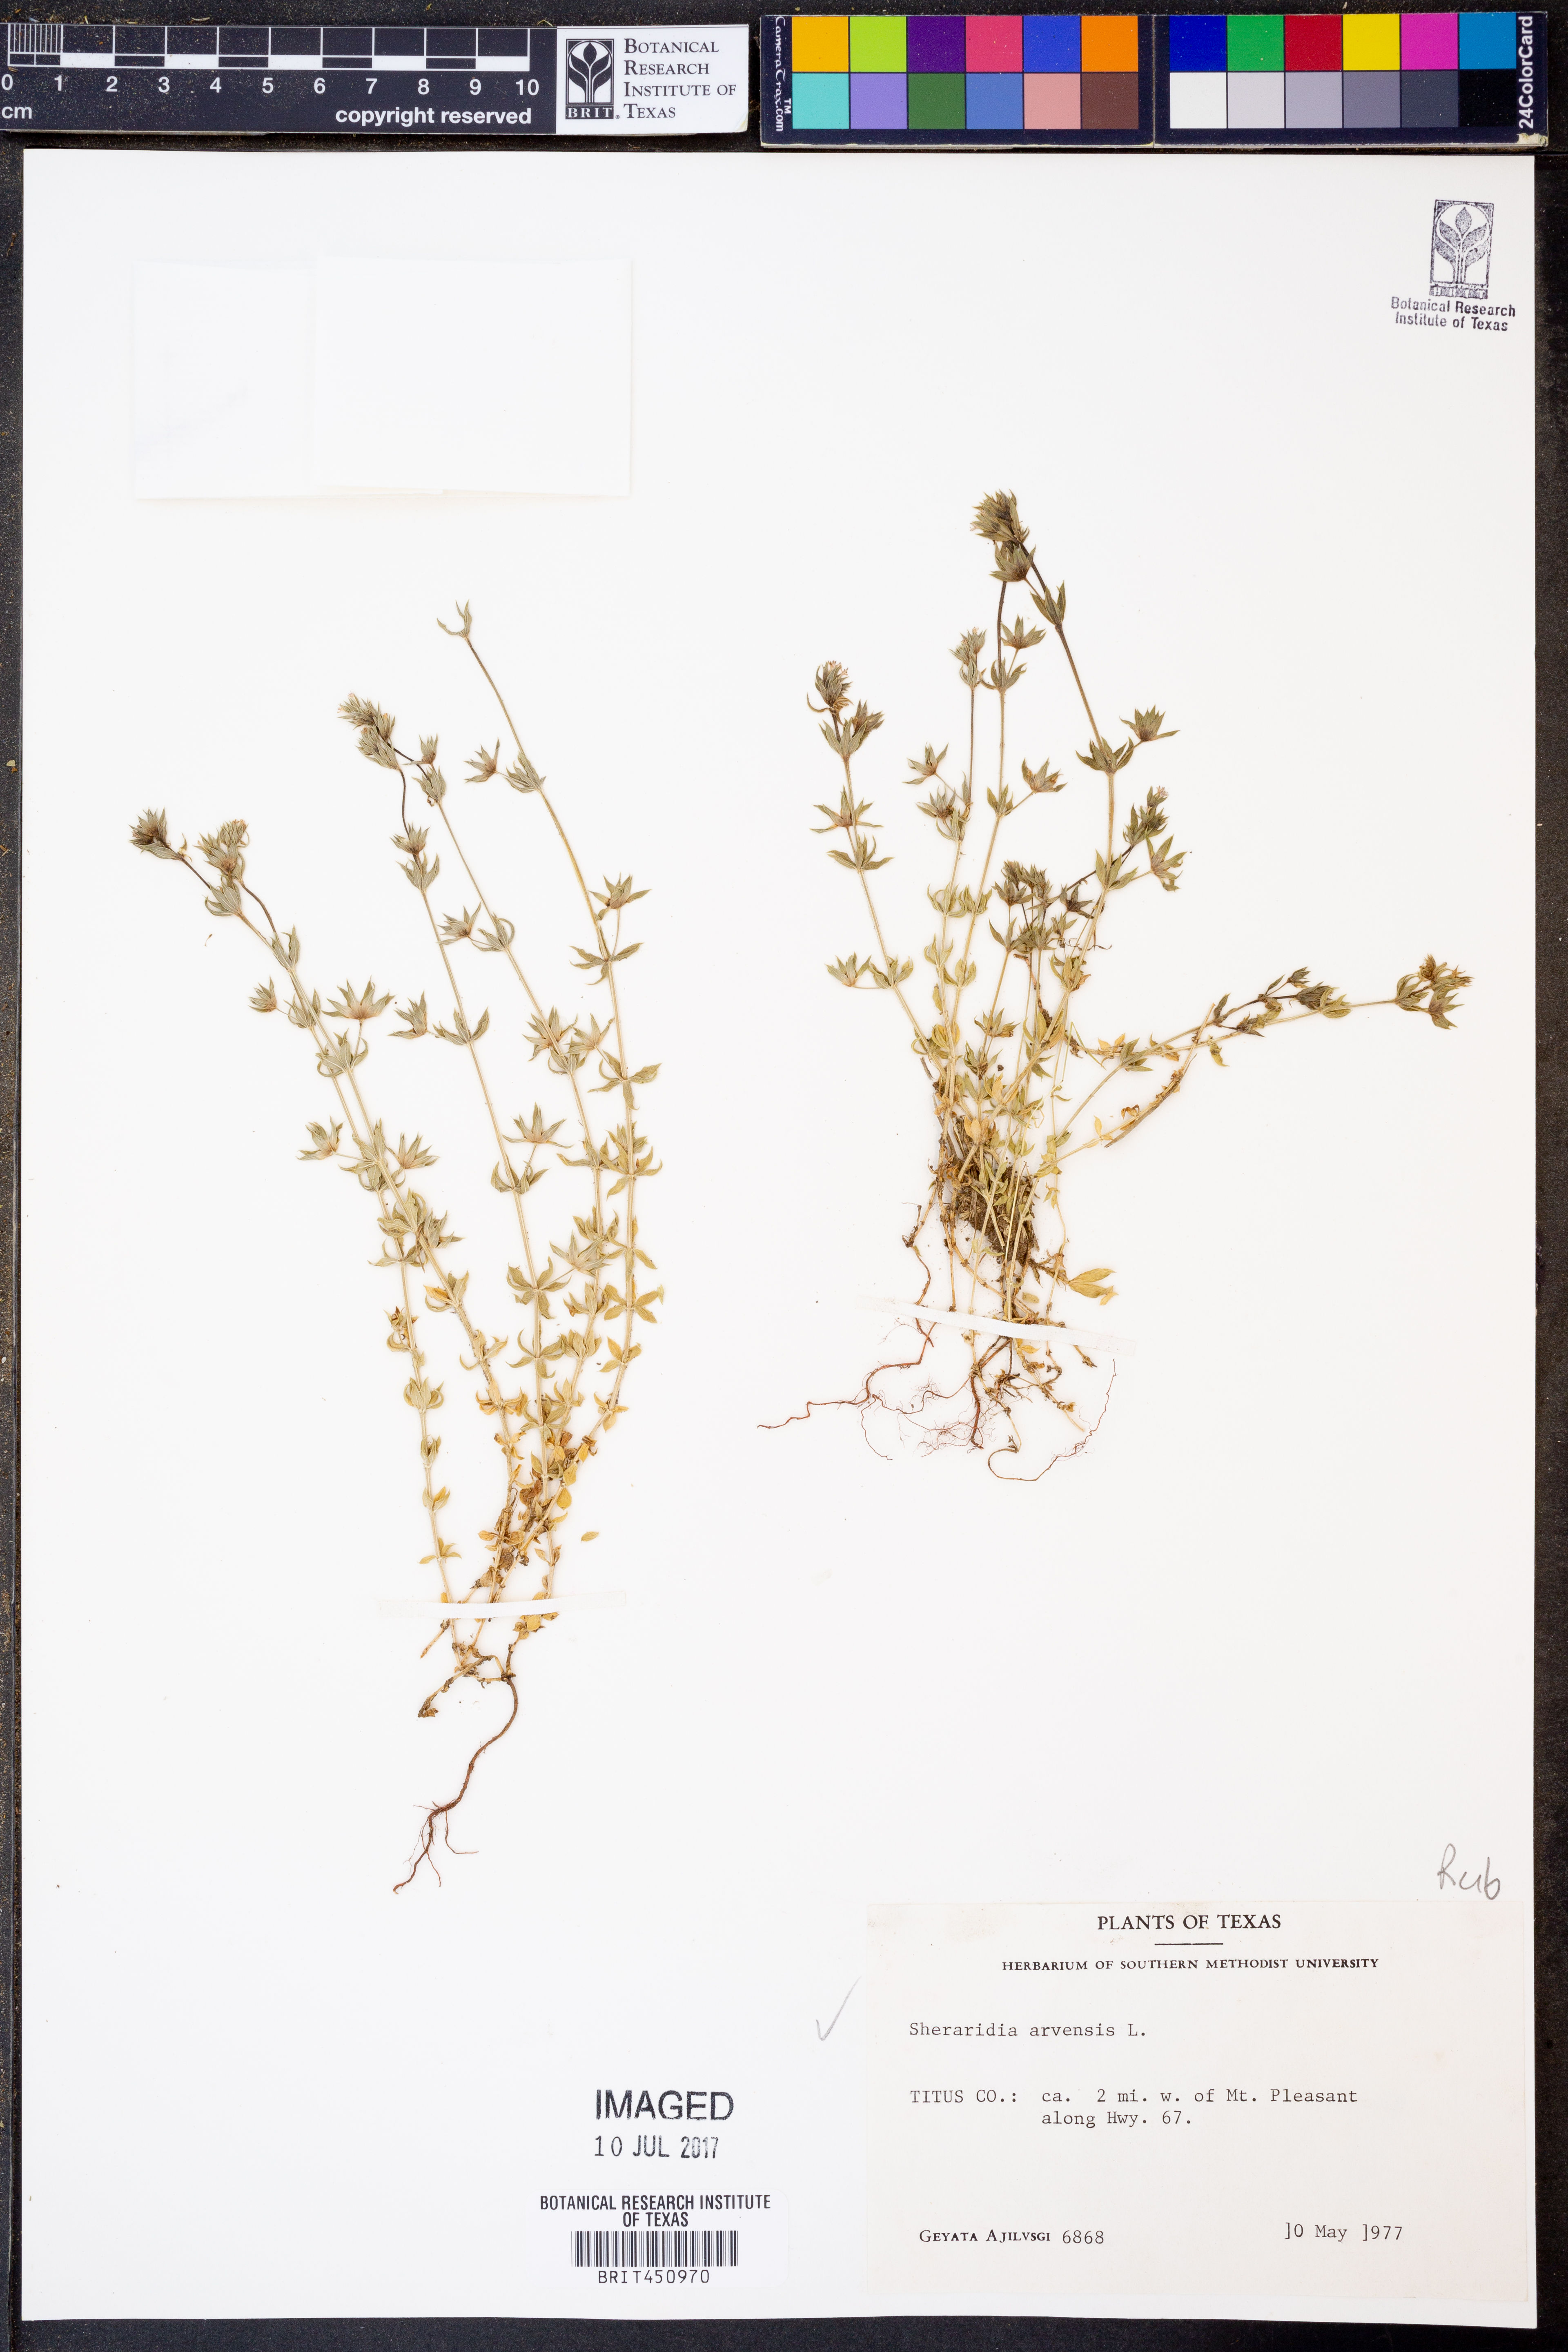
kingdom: Plantae
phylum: Tracheophyta
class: Magnoliopsida
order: Gentianales
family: Rubiaceae
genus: Sherardia
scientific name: Sherardia arvensis
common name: Field madder
